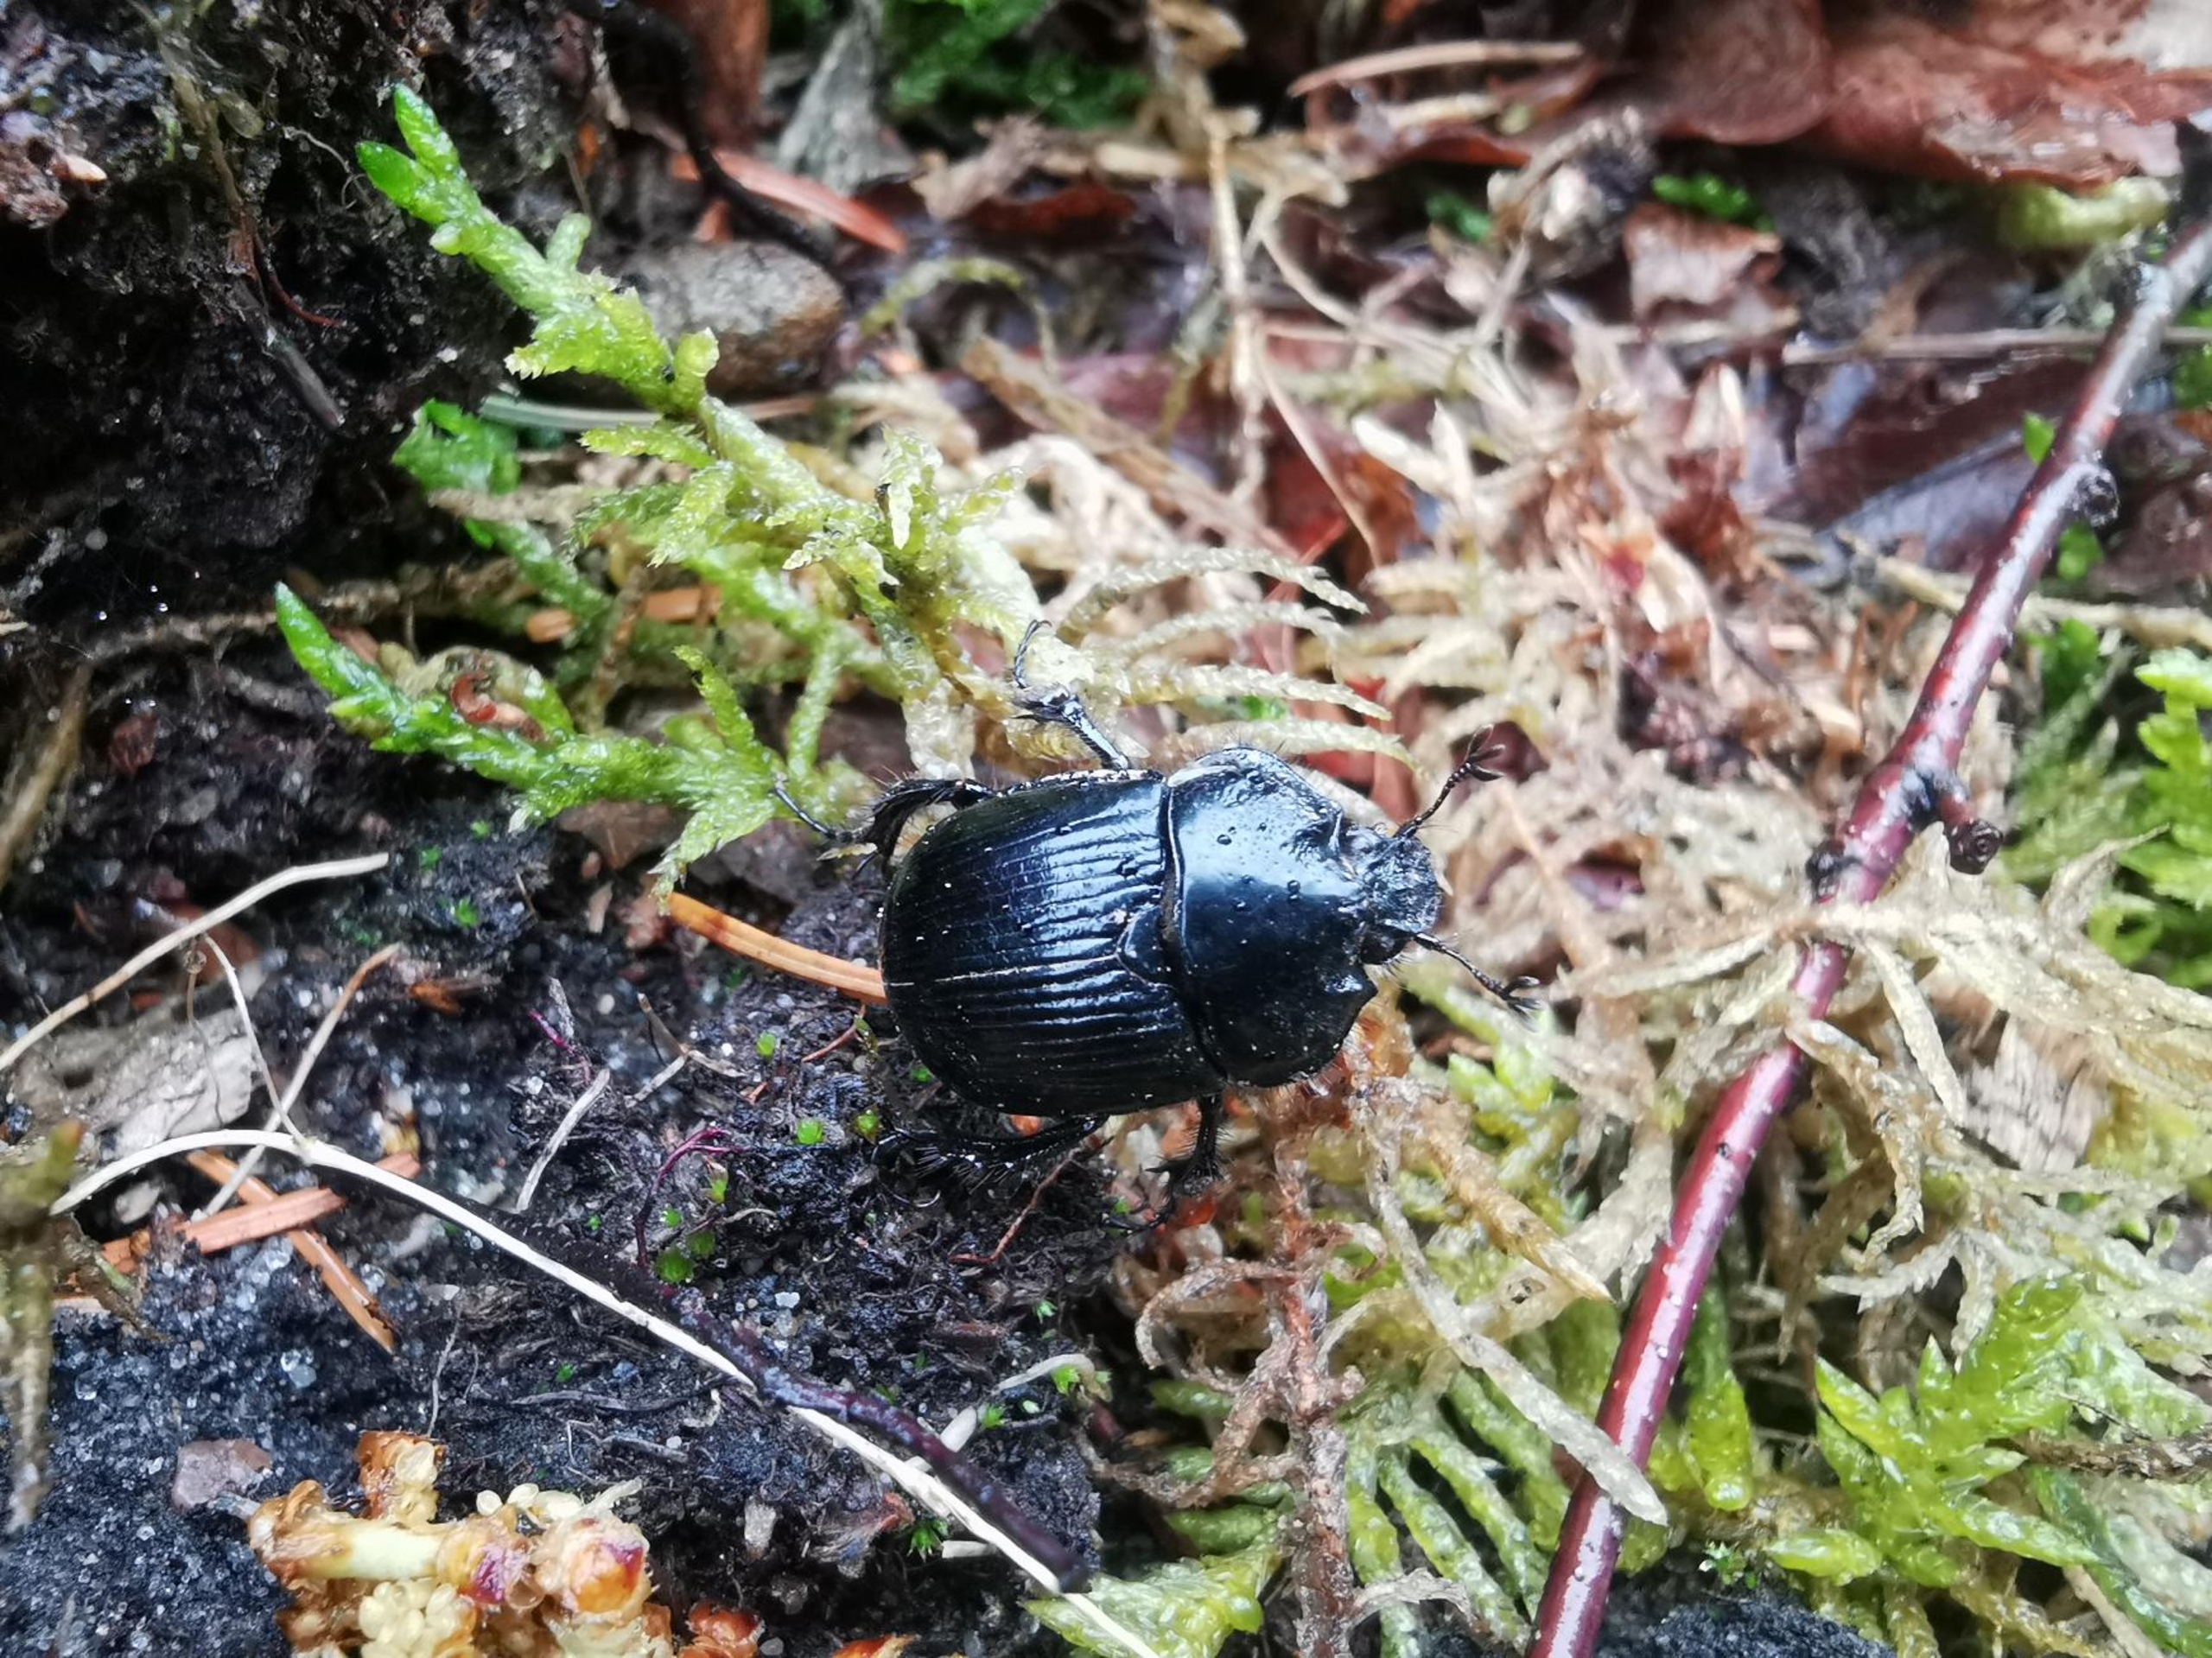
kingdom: Animalia
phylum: Arthropoda
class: Insecta
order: Coleoptera
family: Geotrupidae
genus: Typhaeus
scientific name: Typhaeus typhoeus
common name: Trehornet skarnbasse
